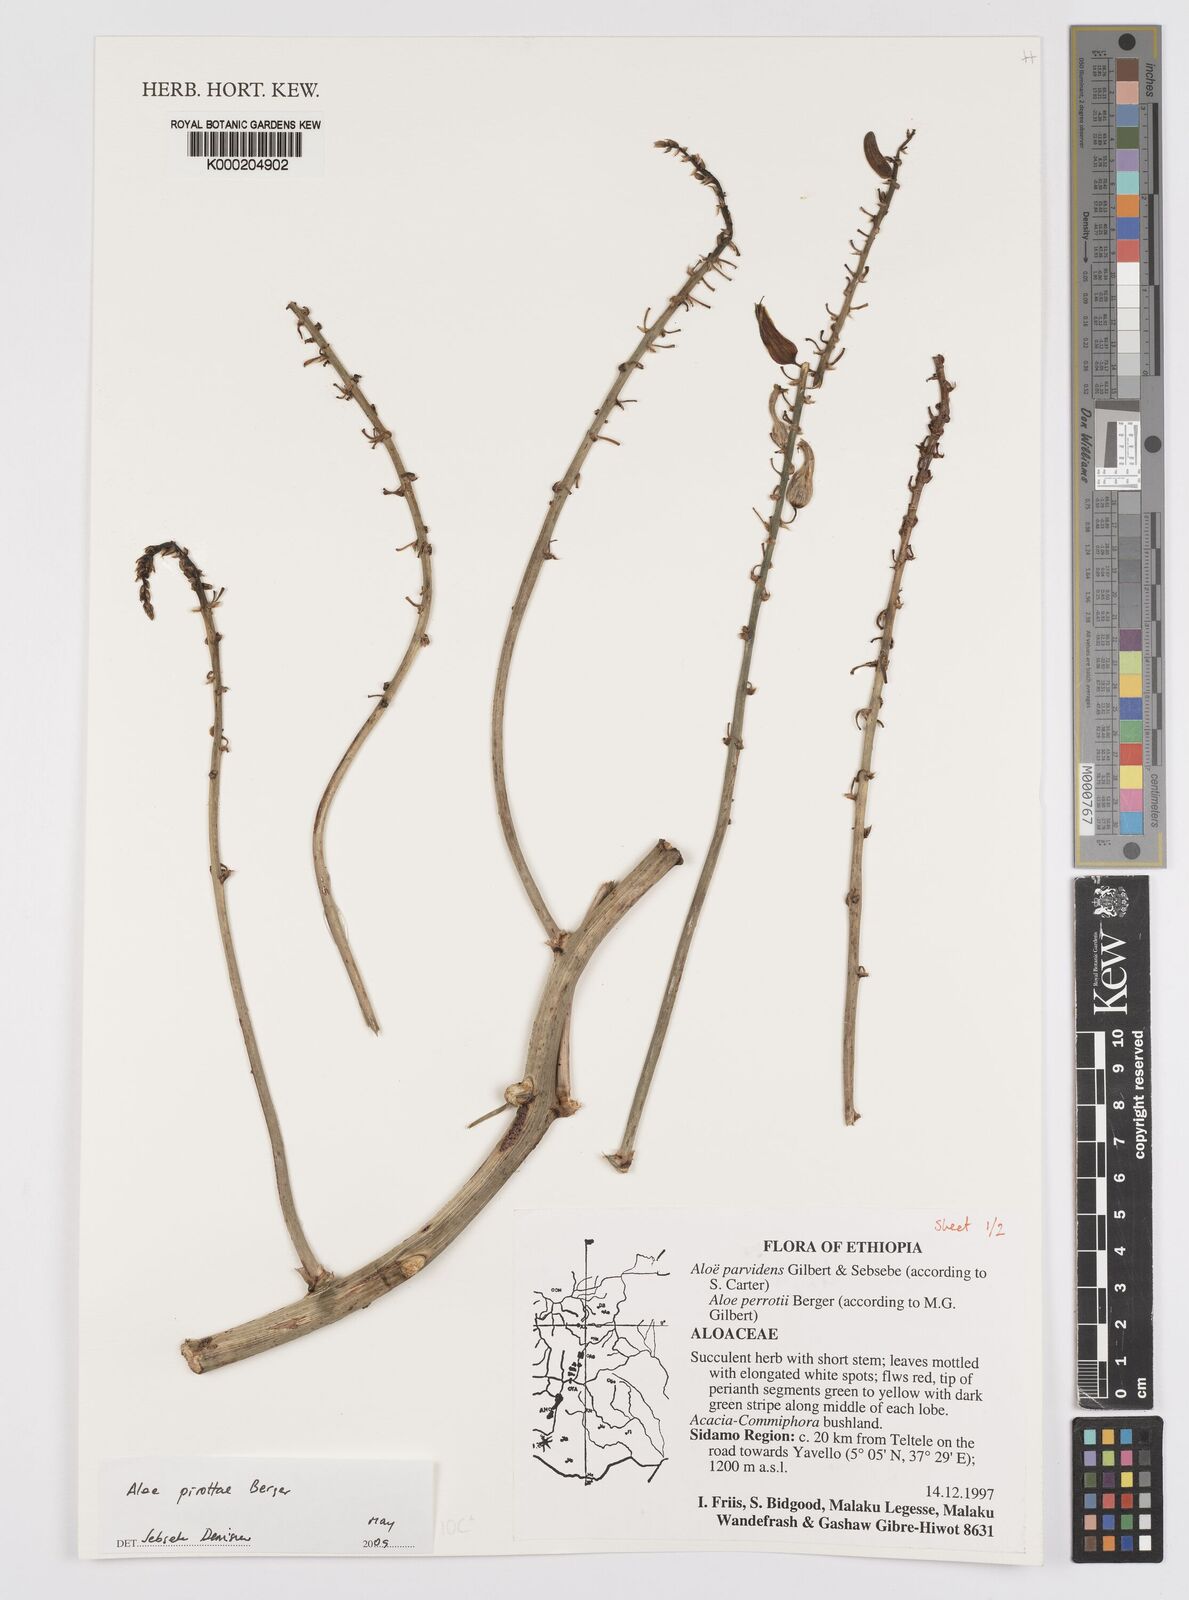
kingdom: Plantae
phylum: Tracheophyta
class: Liliopsida
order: Asparagales
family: Asphodelaceae
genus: Aloe
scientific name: Aloe pirottae
